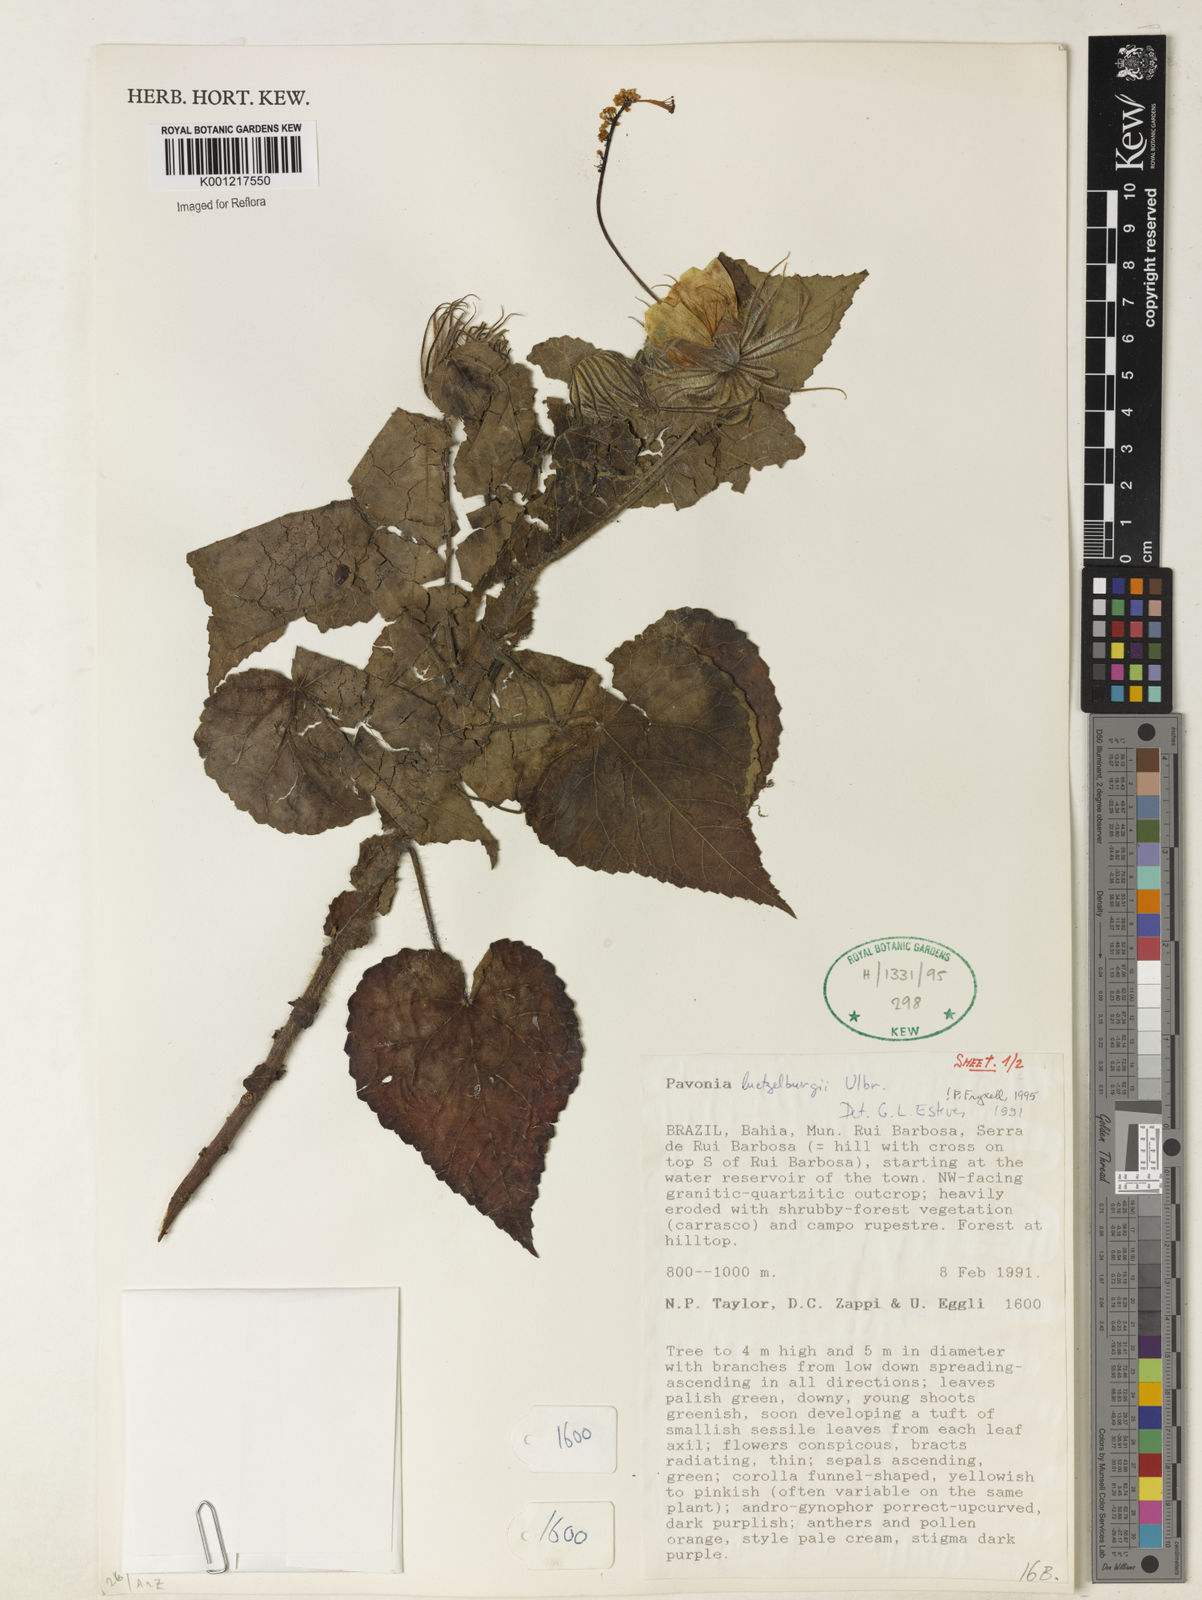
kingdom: Plantae
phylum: Tracheophyta
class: Magnoliopsida
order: Malvales
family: Malvaceae
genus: Pavonia
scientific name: Pavonia luetzelburgii
